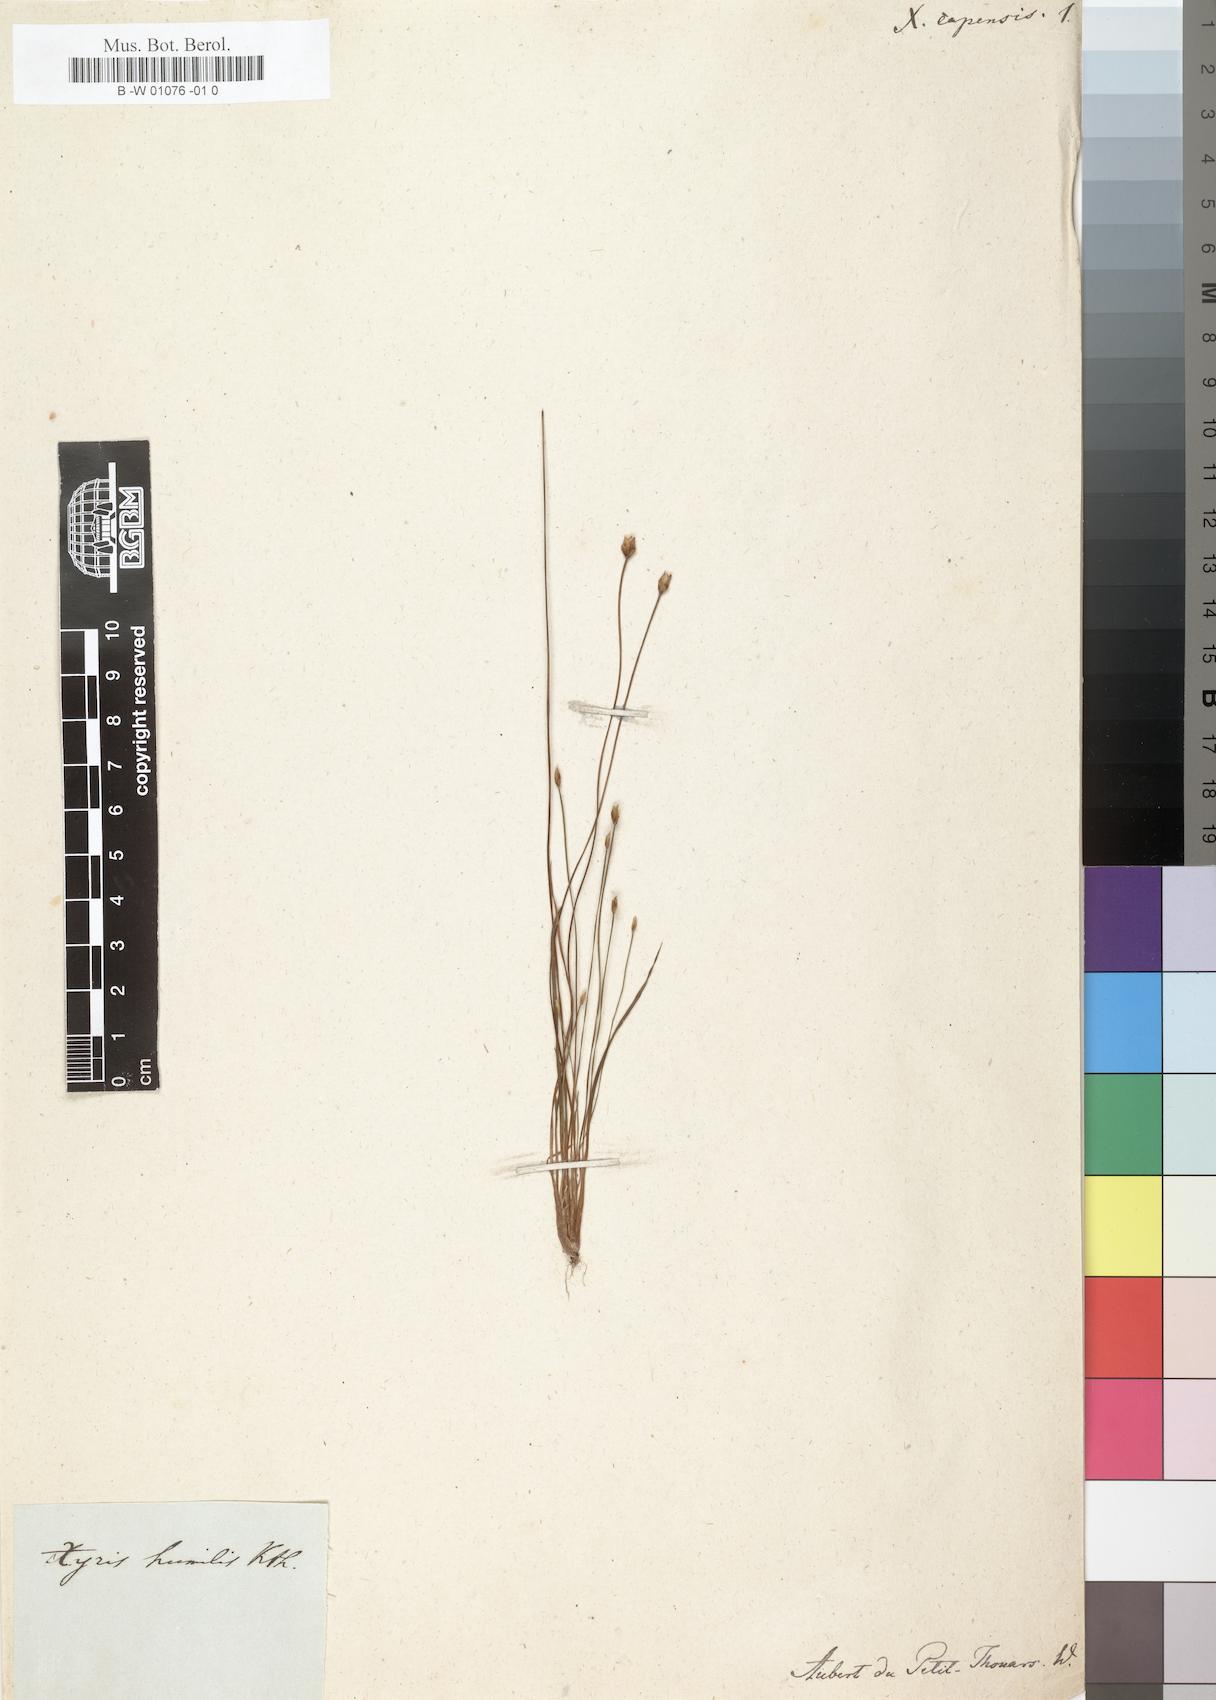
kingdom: Plantae
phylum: Tracheophyta
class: Liliopsida
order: Poales
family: Xyridaceae
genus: Xyris
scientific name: Xyris anceps
